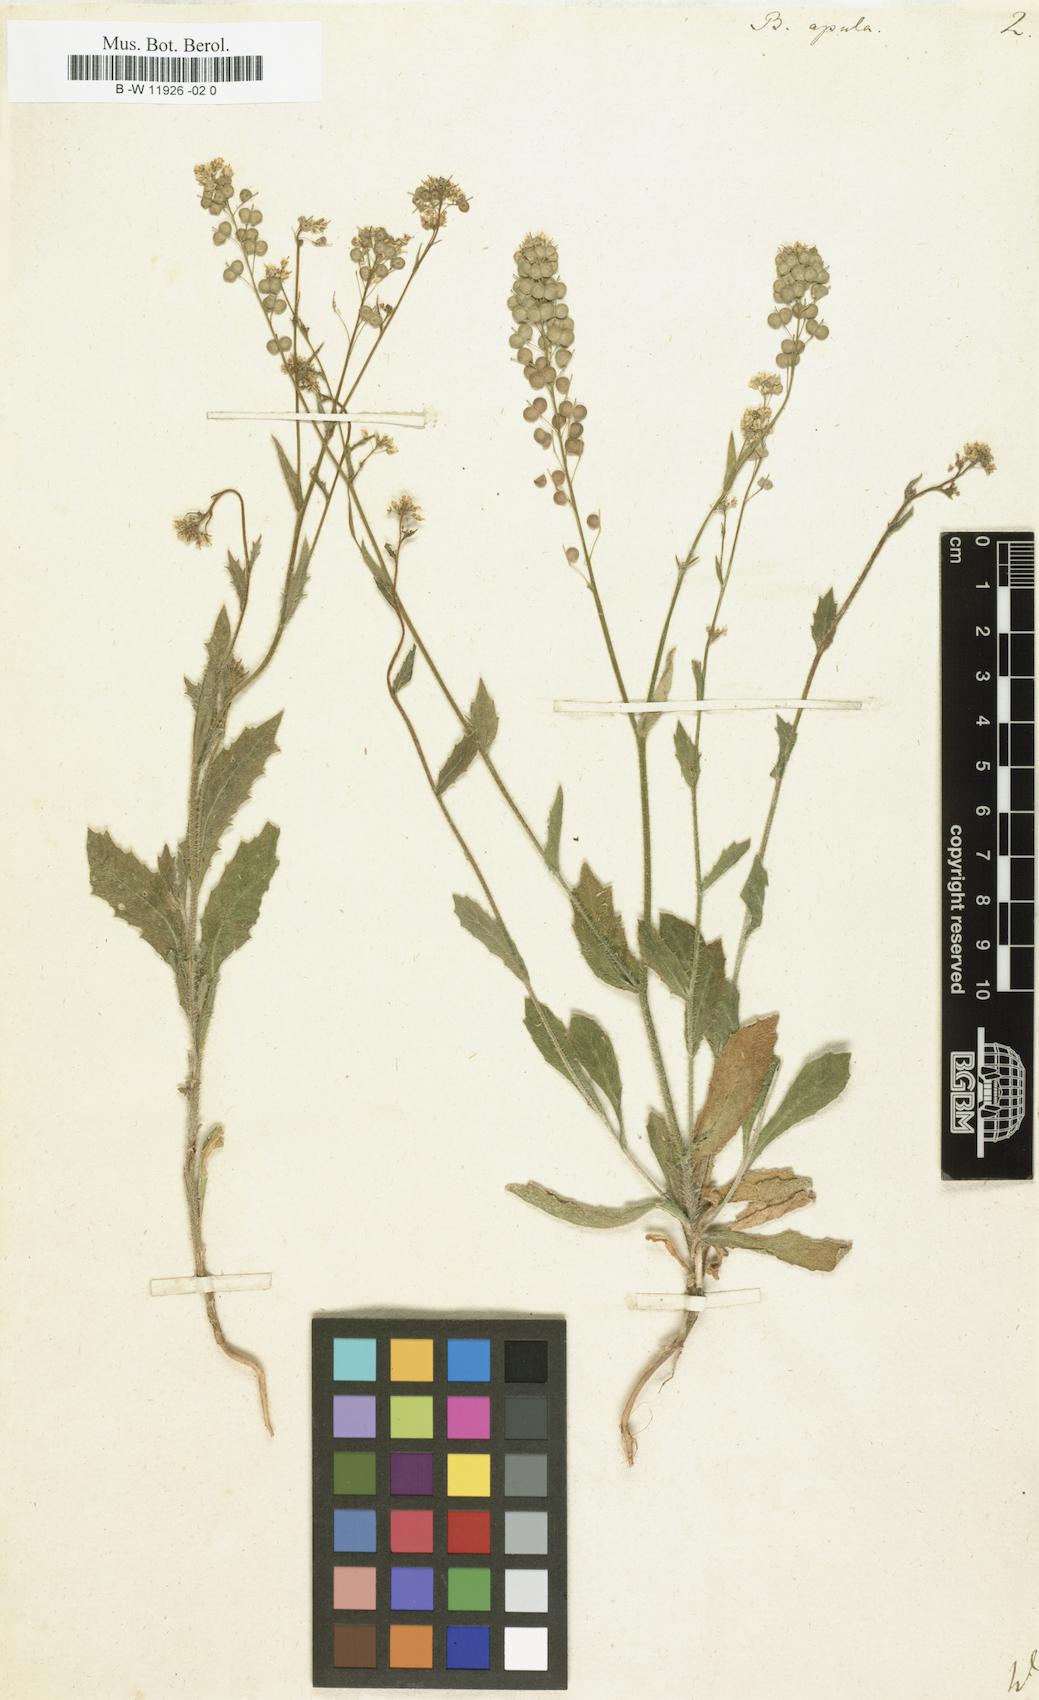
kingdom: Plantae
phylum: Tracheophyta
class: Magnoliopsida
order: Brassicales
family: Brassicaceae
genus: Biscutella
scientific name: Biscutella apula
